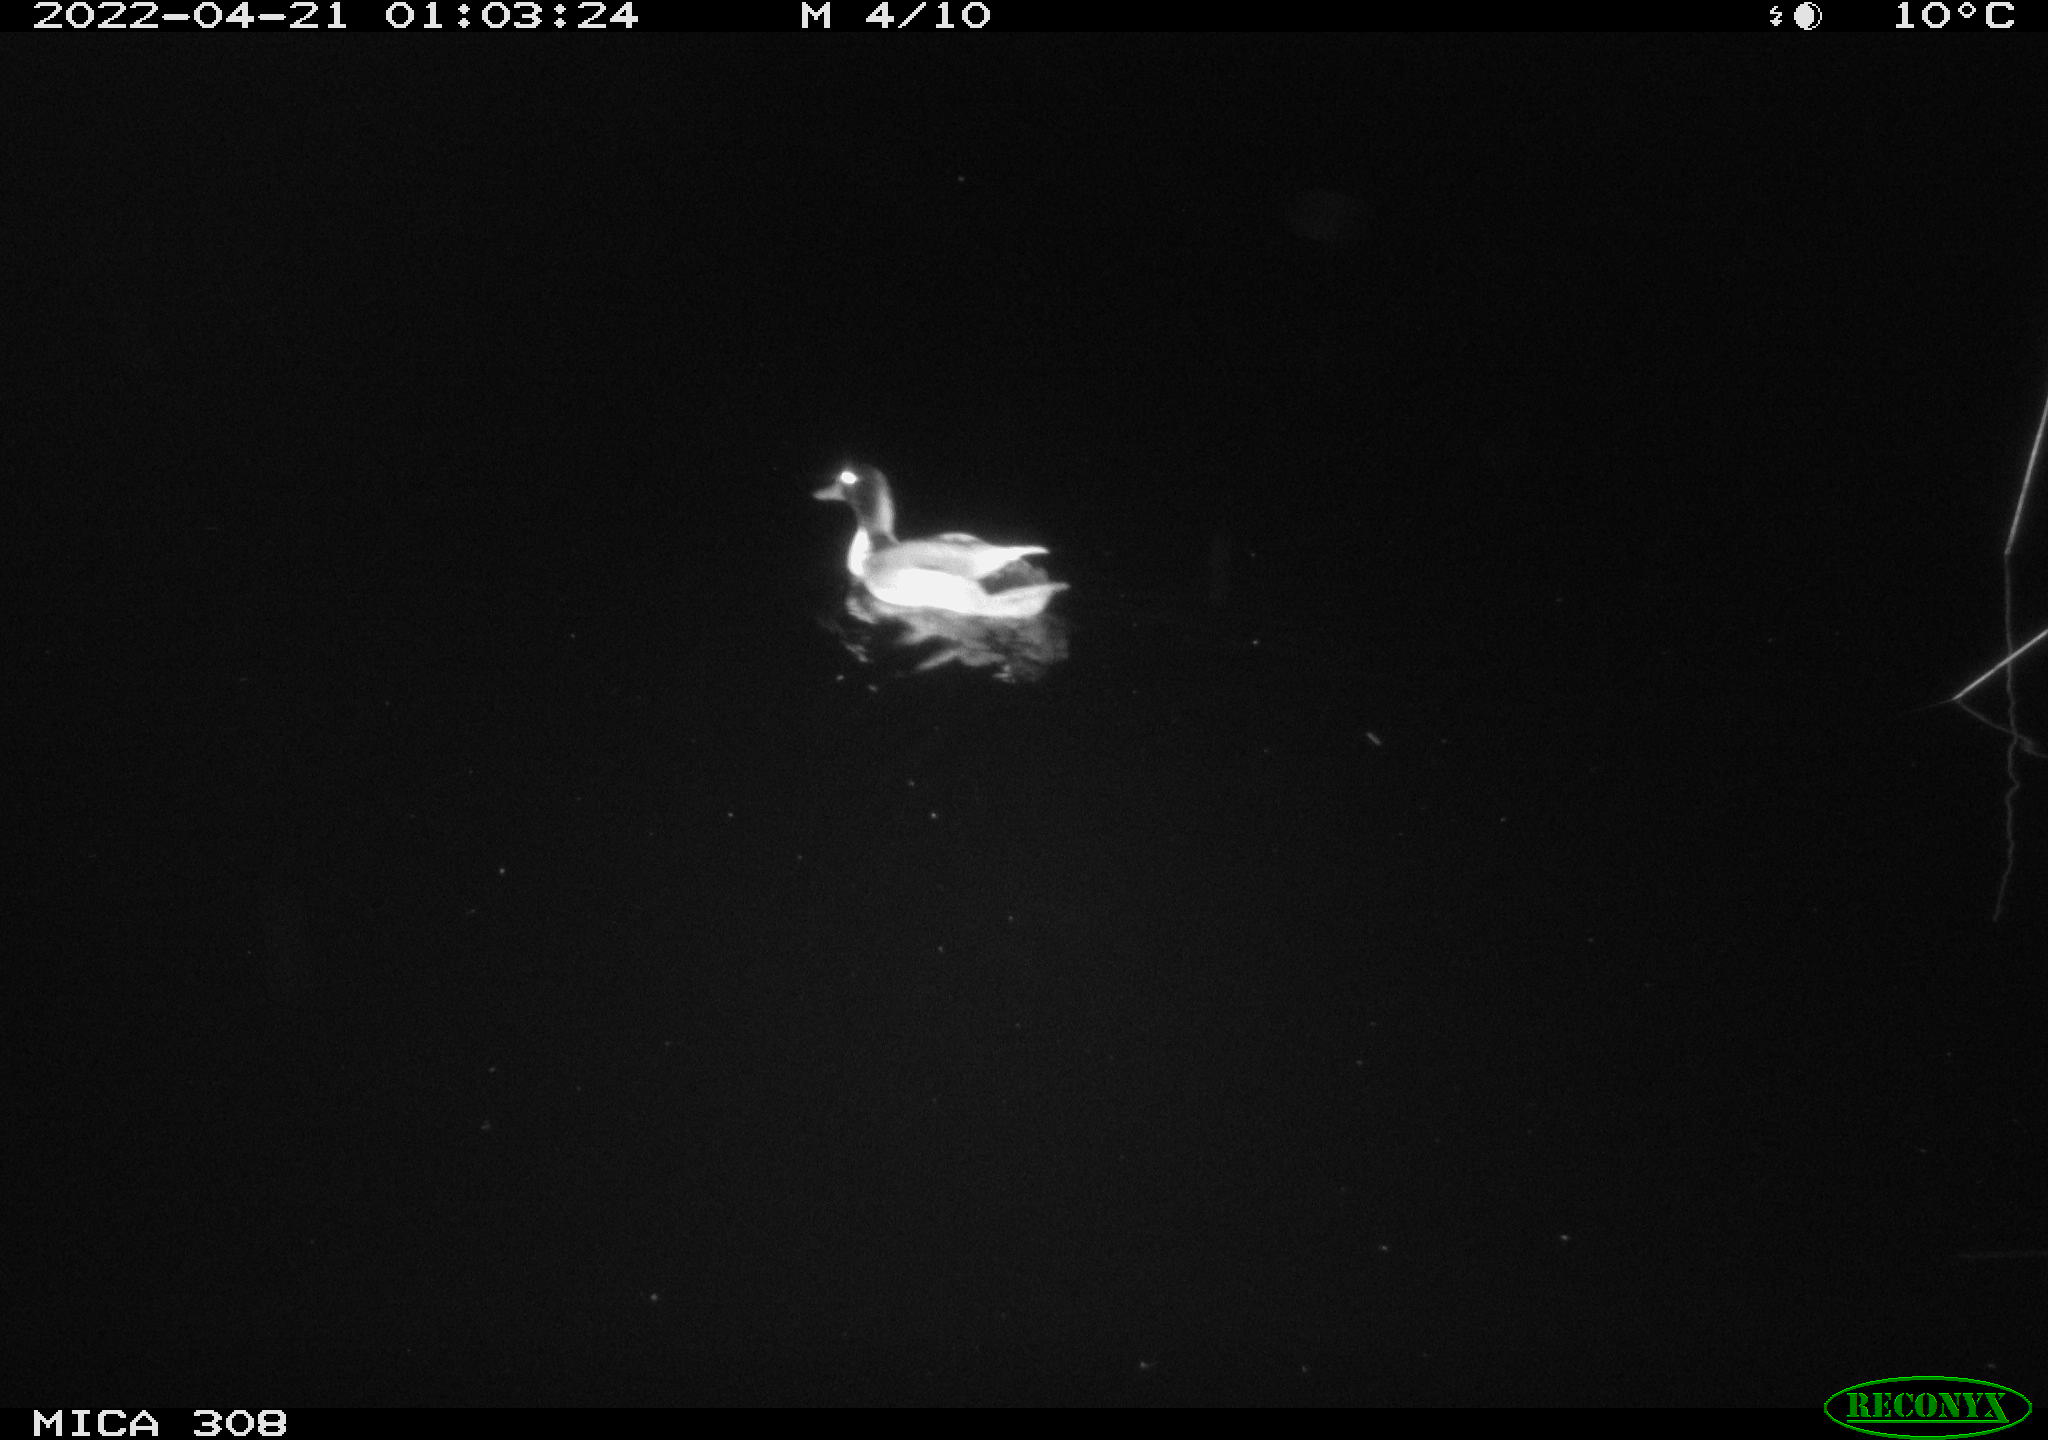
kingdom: Animalia
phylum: Chordata
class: Aves
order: Anseriformes
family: Anatidae
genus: Anas
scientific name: Anas platyrhynchos
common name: Mallard
